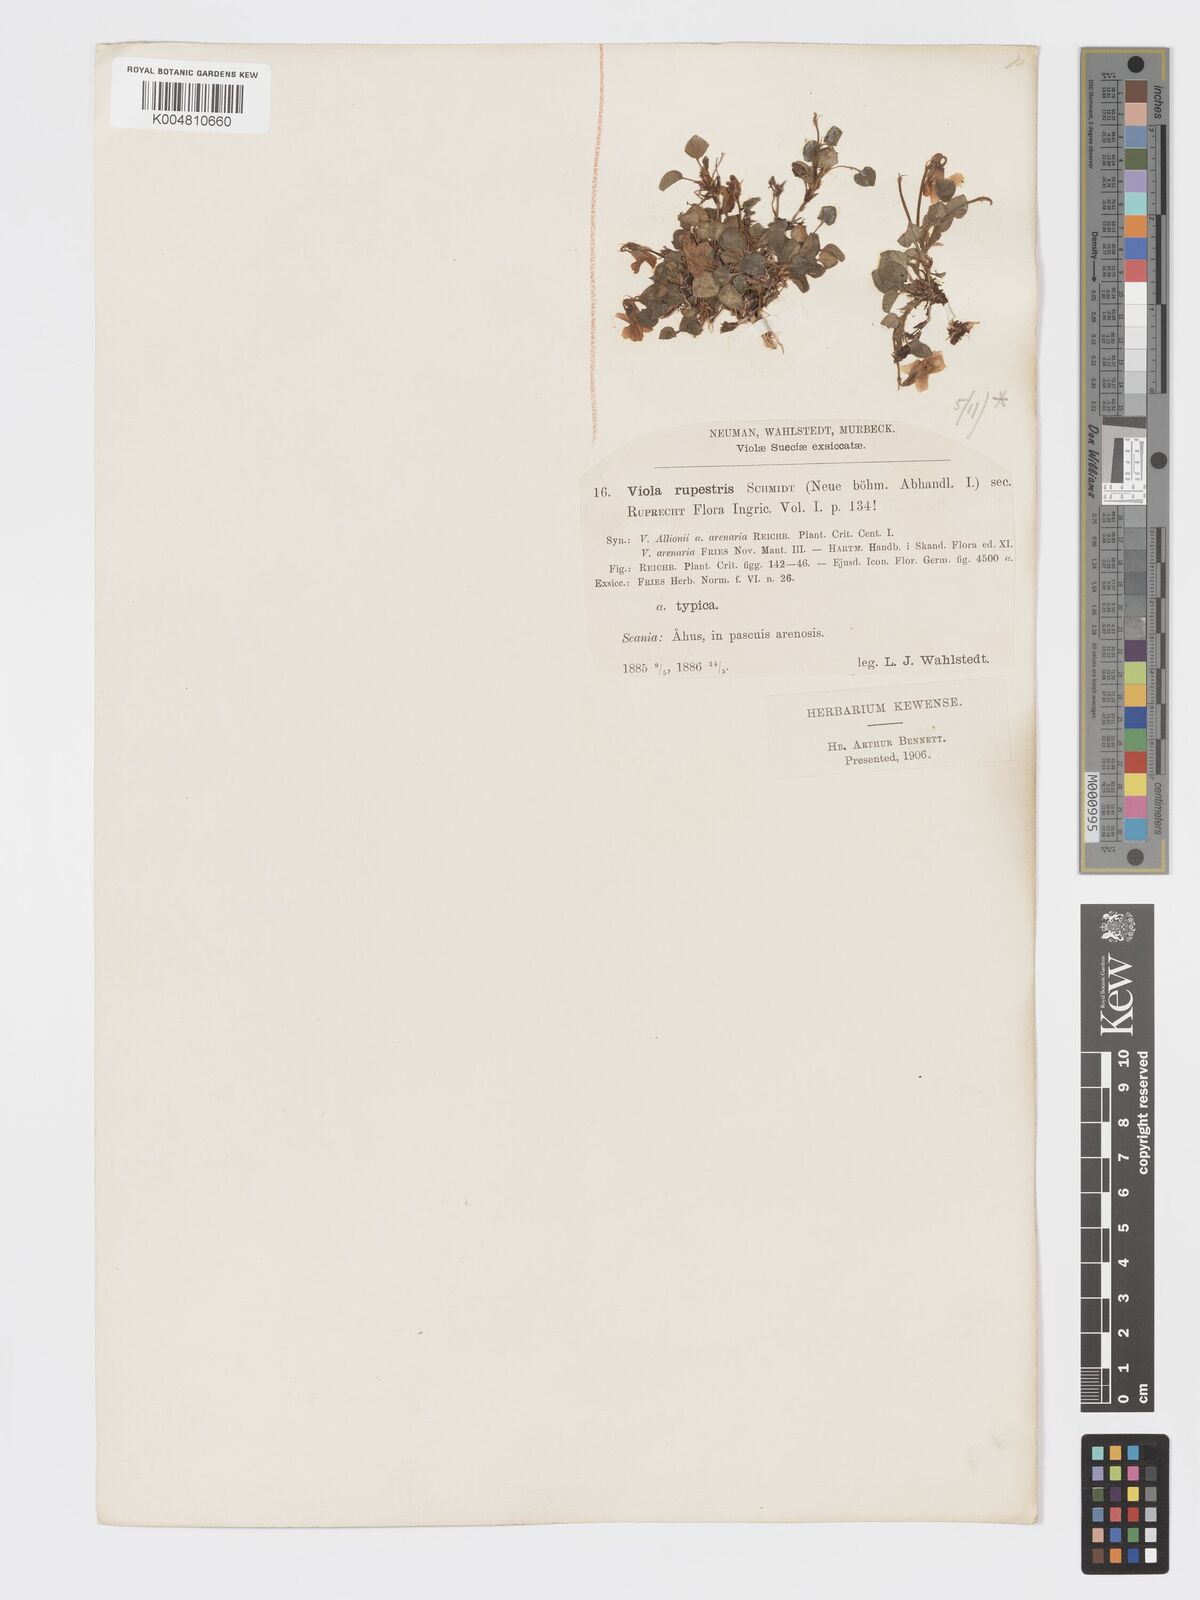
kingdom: Plantae
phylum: Tracheophyta
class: Magnoliopsida
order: Malpighiales
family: Violaceae
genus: Viola
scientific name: Viola rupestris
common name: Teesdale violet
